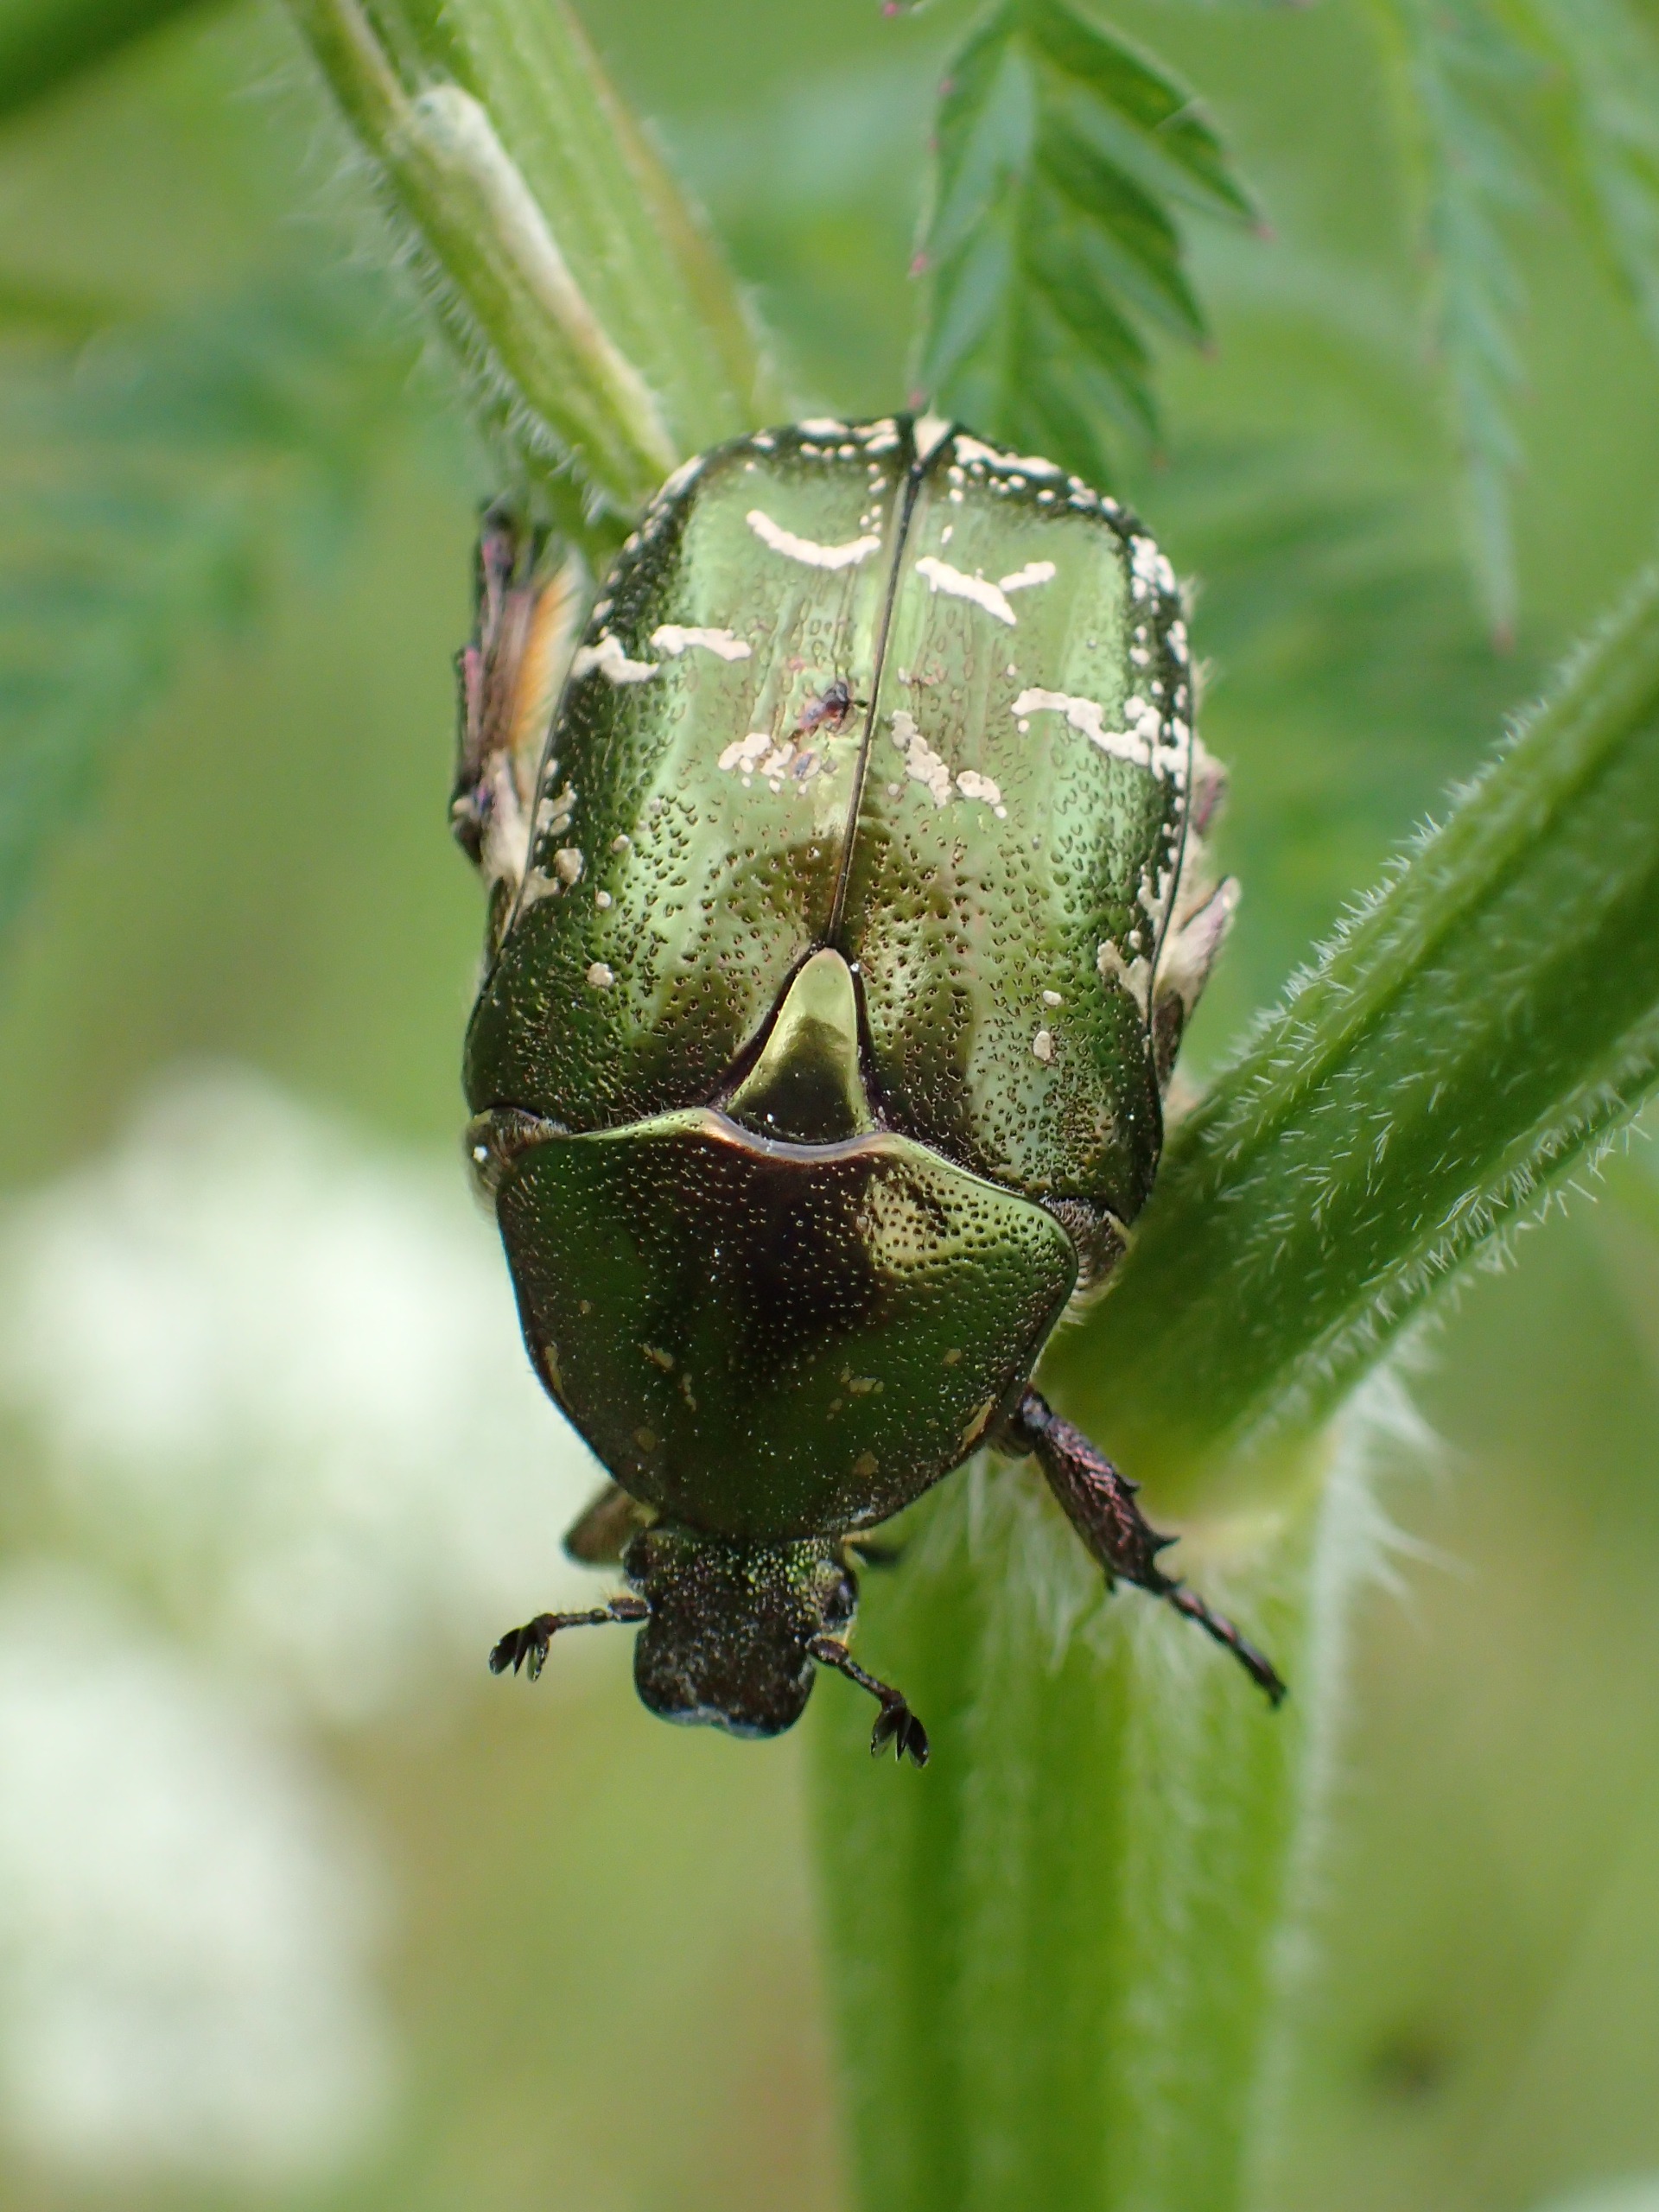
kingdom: Animalia
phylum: Arthropoda
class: Insecta
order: Coleoptera
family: Scarabaeidae
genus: Protaetia
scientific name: Protaetia cuprea
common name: Kobberguldbasse
